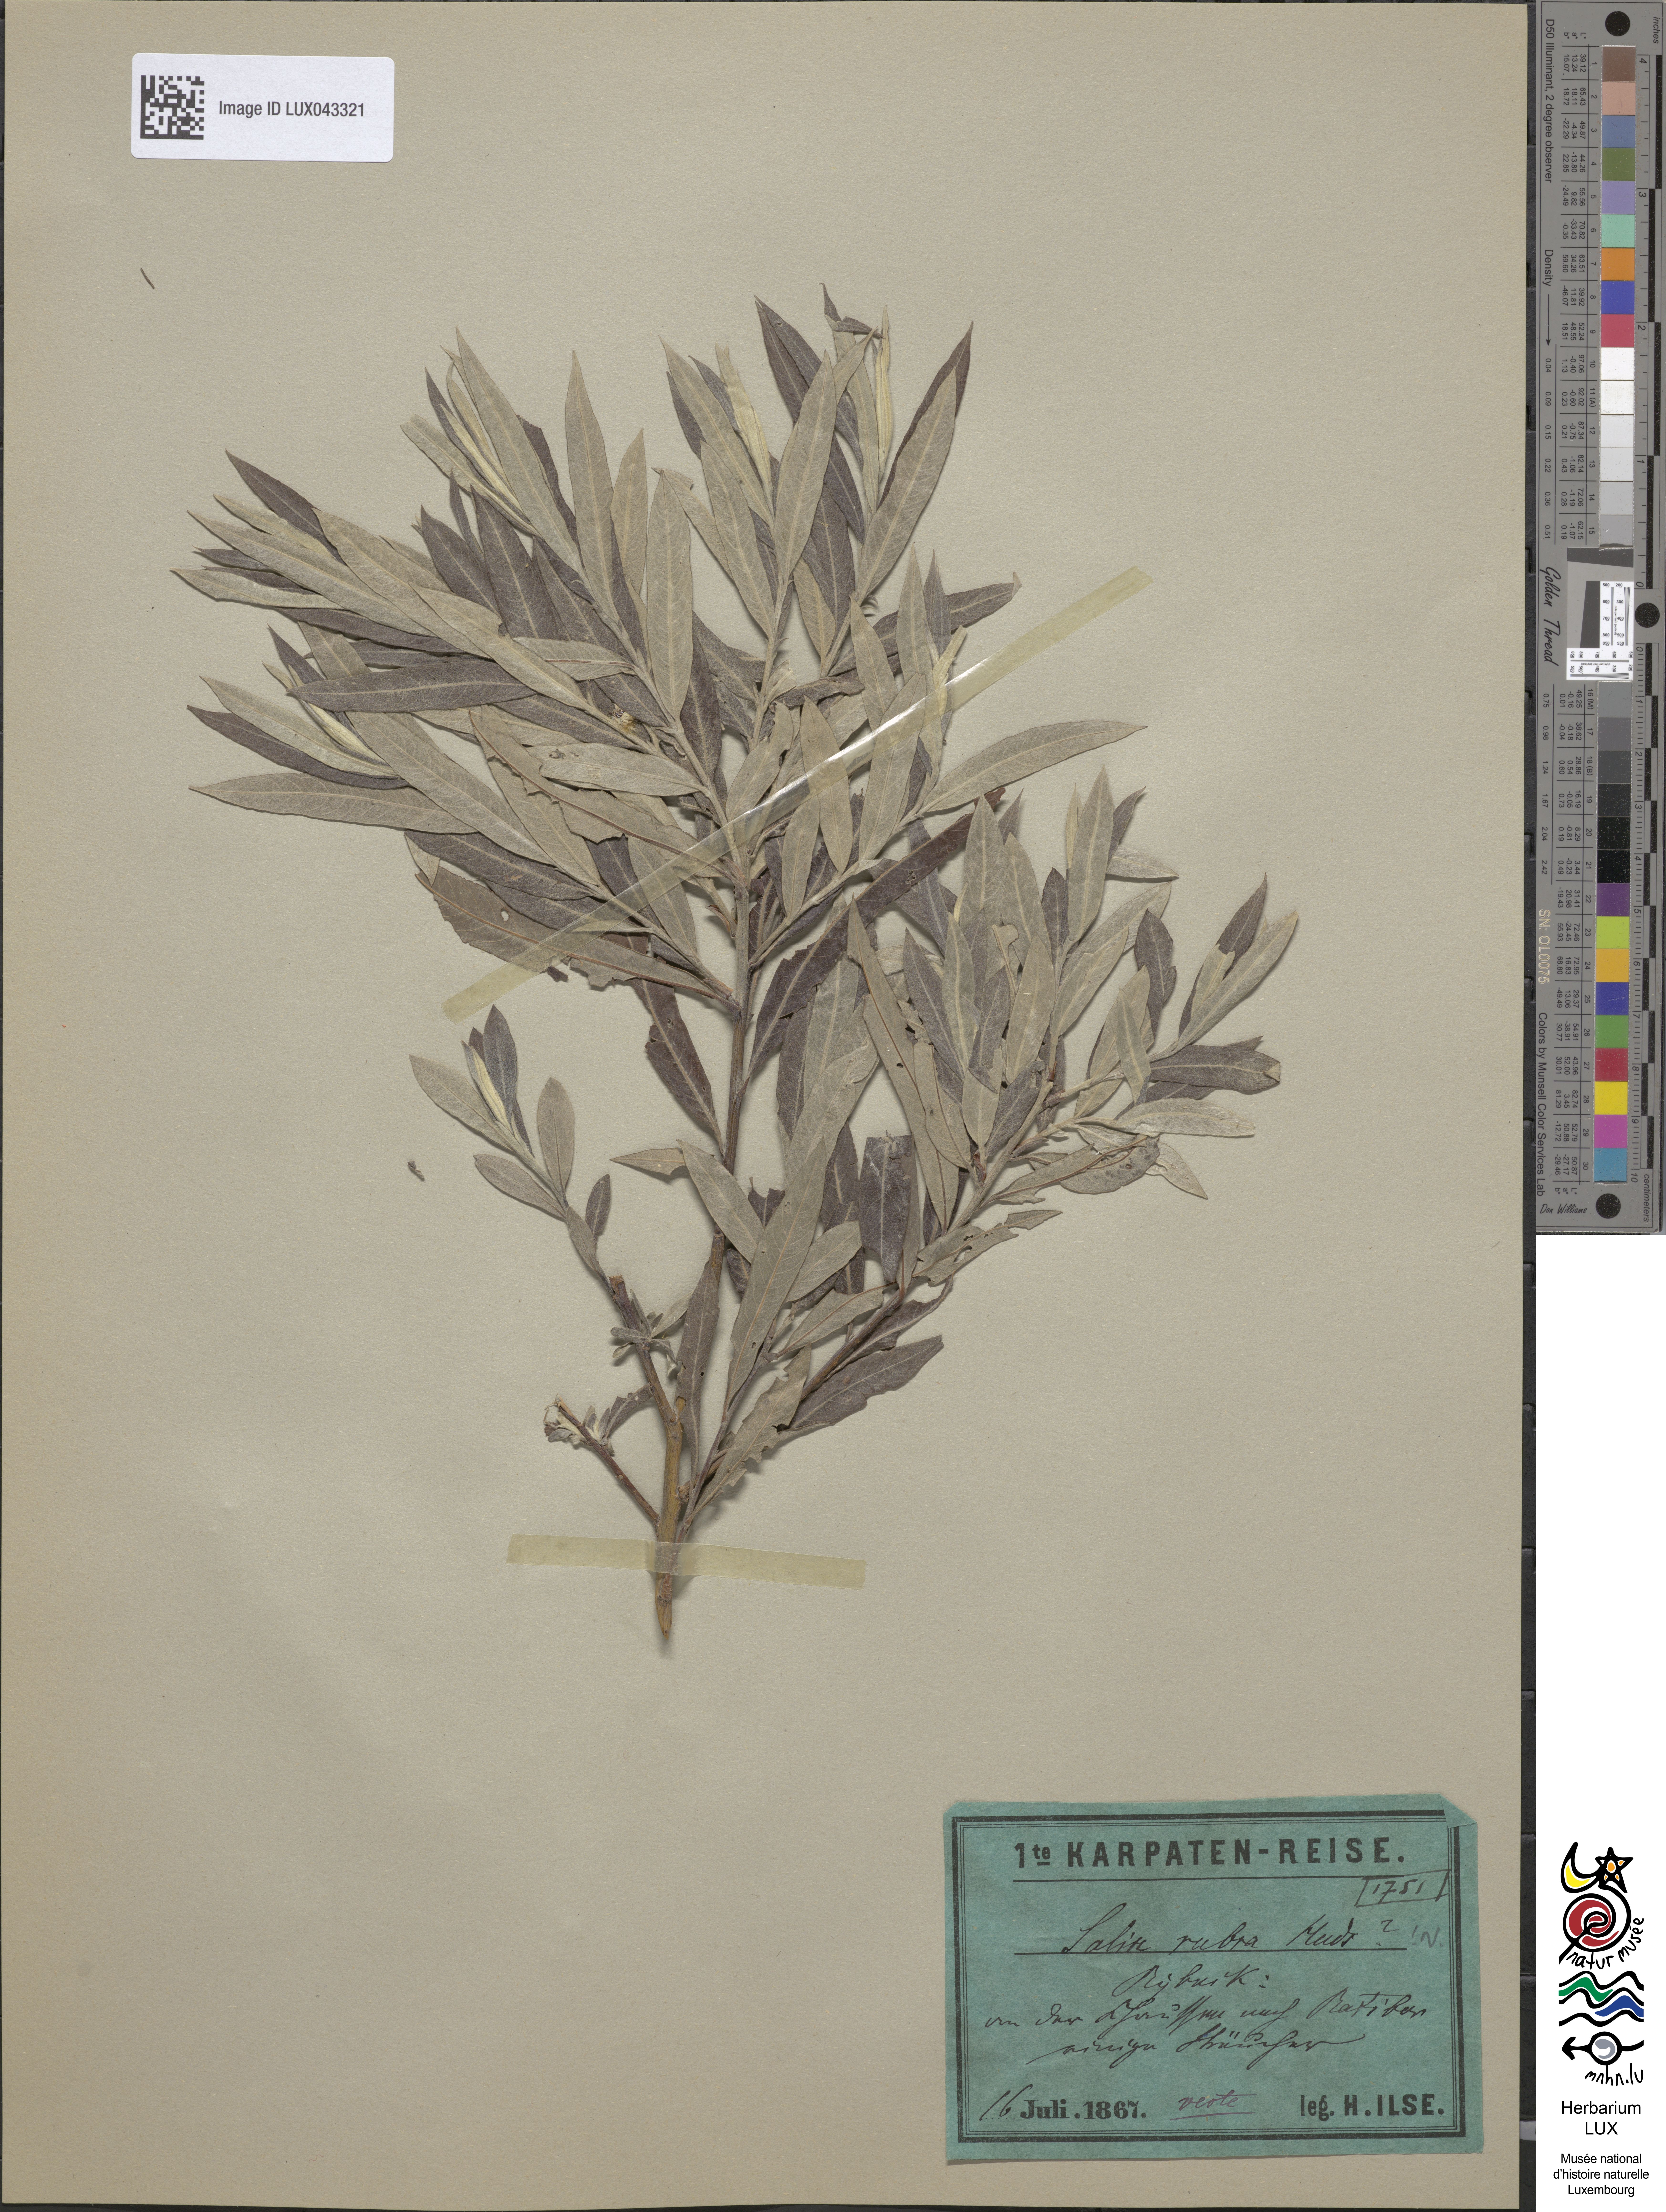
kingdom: Plantae
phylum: Tracheophyta
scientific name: Tracheophyta
